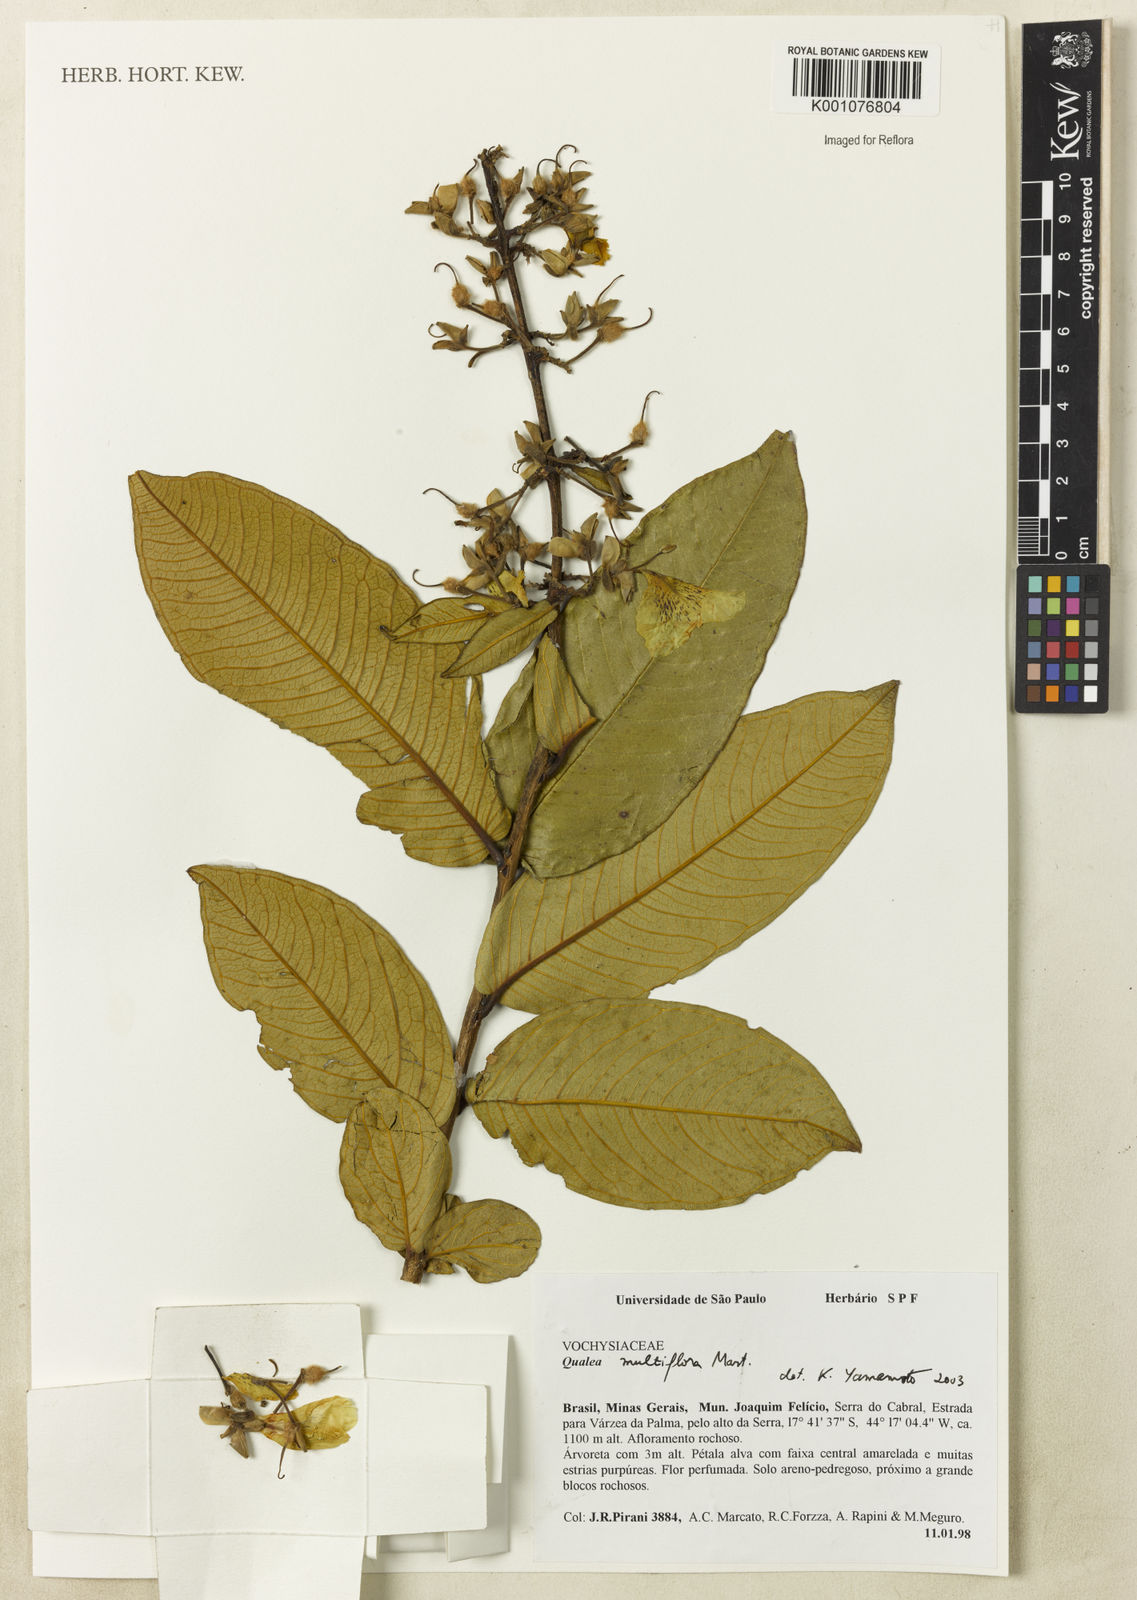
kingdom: Plantae
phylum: Tracheophyta
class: Magnoliopsida
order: Myrtales
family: Vochysiaceae
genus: Qualea
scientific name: Qualea multiflora
